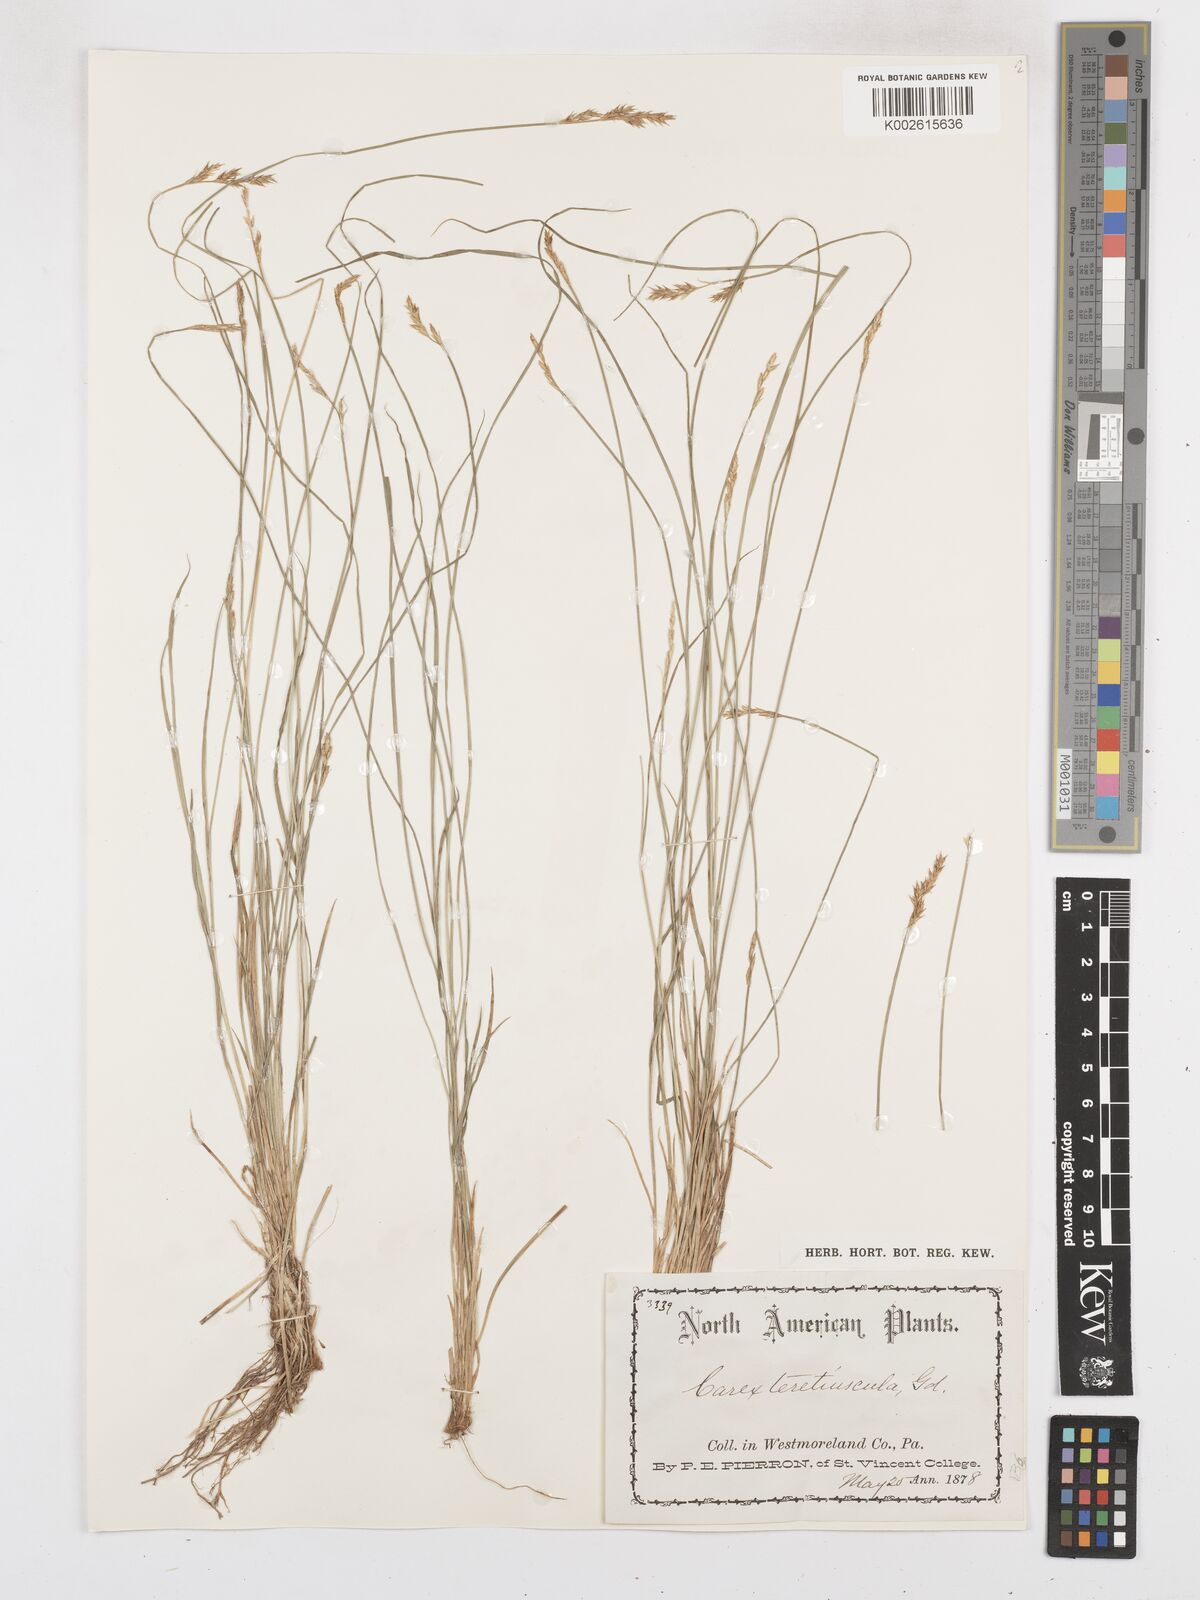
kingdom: Plantae
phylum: Tracheophyta
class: Liliopsida
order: Poales
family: Cyperaceae
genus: Carex
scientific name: Carex illota
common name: Sheep sedge
